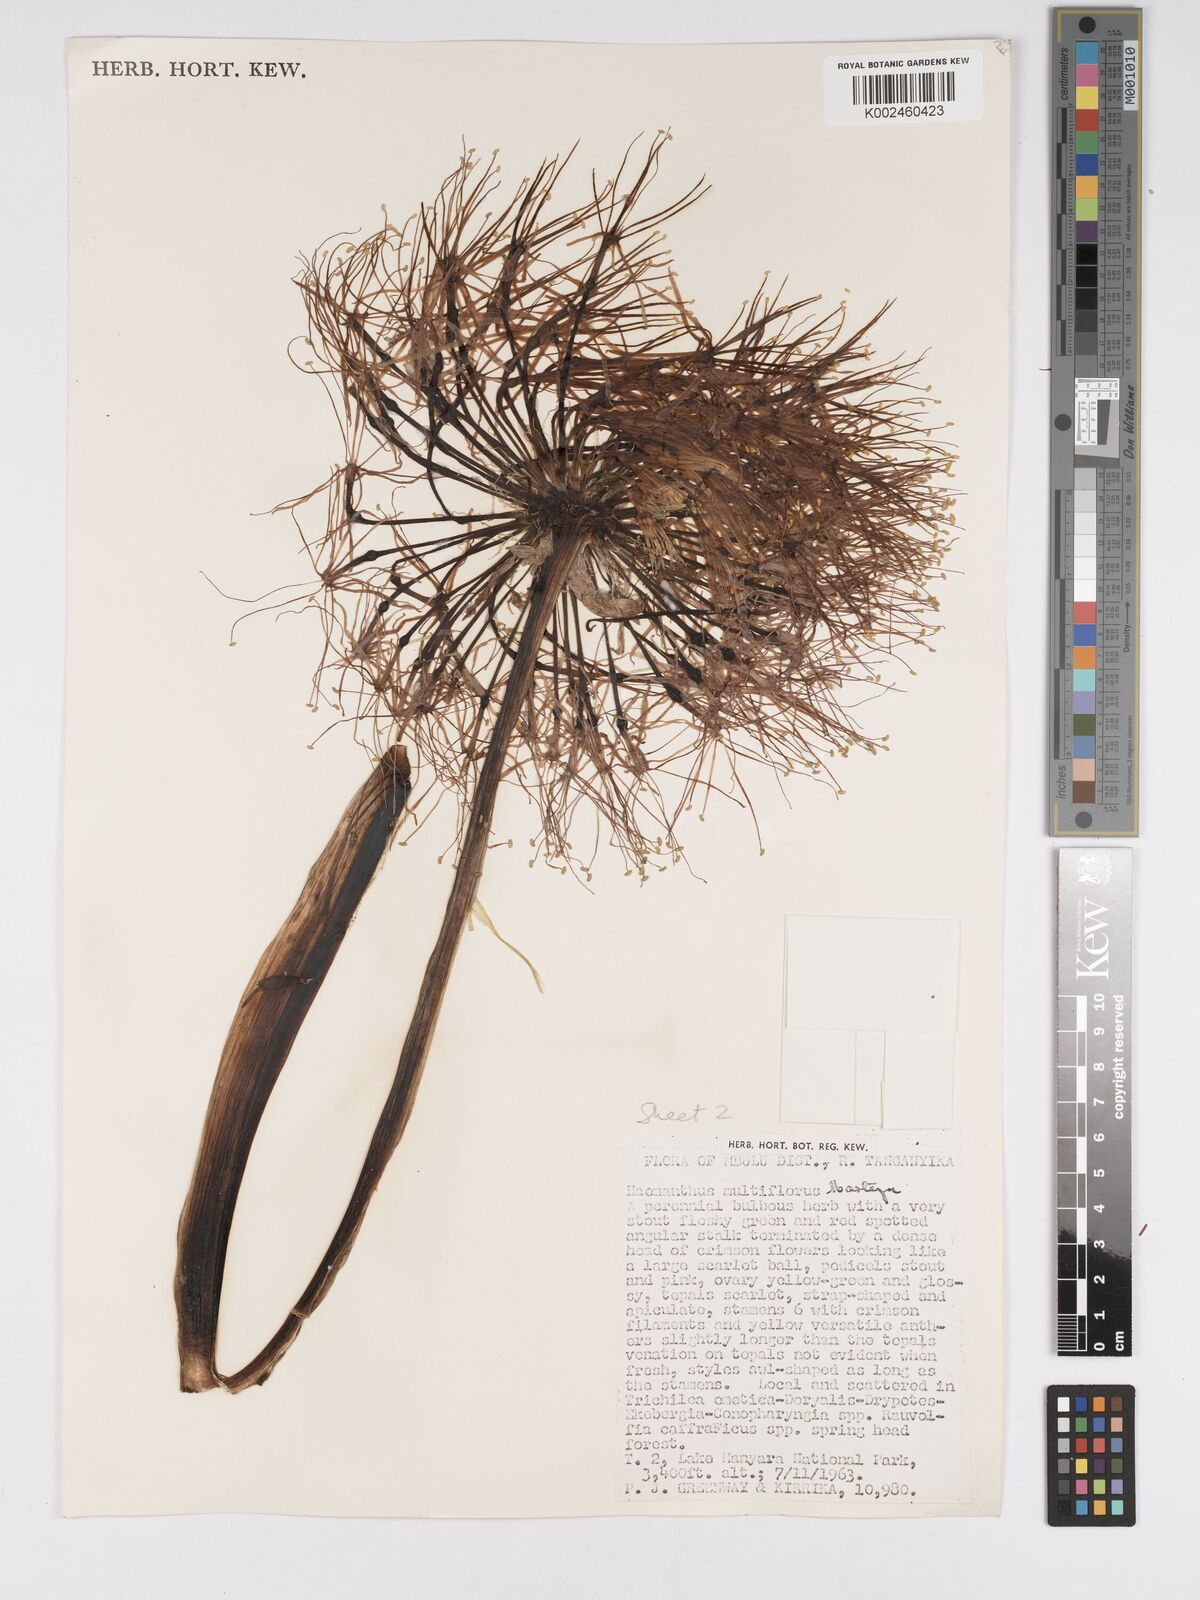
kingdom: Plantae
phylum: Tracheophyta
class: Liliopsida
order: Asparagales
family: Amaryllidaceae
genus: Scadoxus
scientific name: Scadoxus multiflorus
